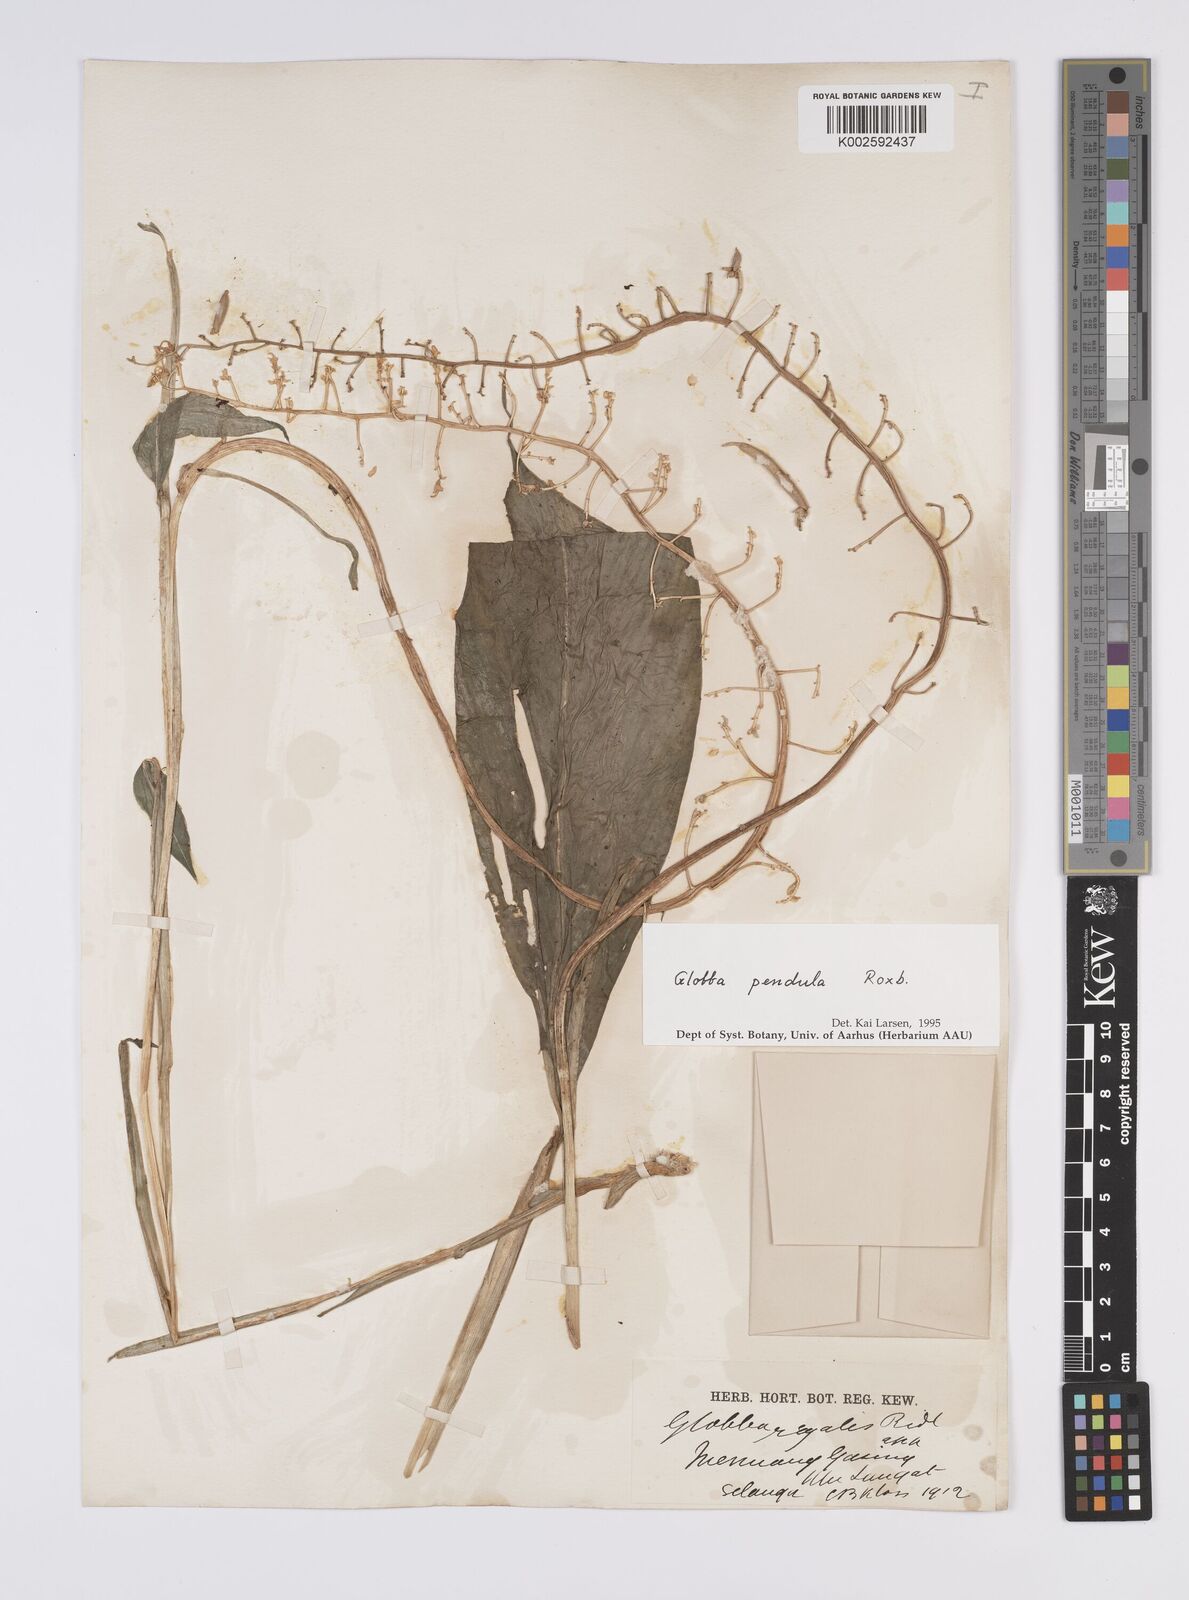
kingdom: Plantae
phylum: Tracheophyta
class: Liliopsida
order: Zingiberales
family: Zingiberaceae
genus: Globba
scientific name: Globba pendula
